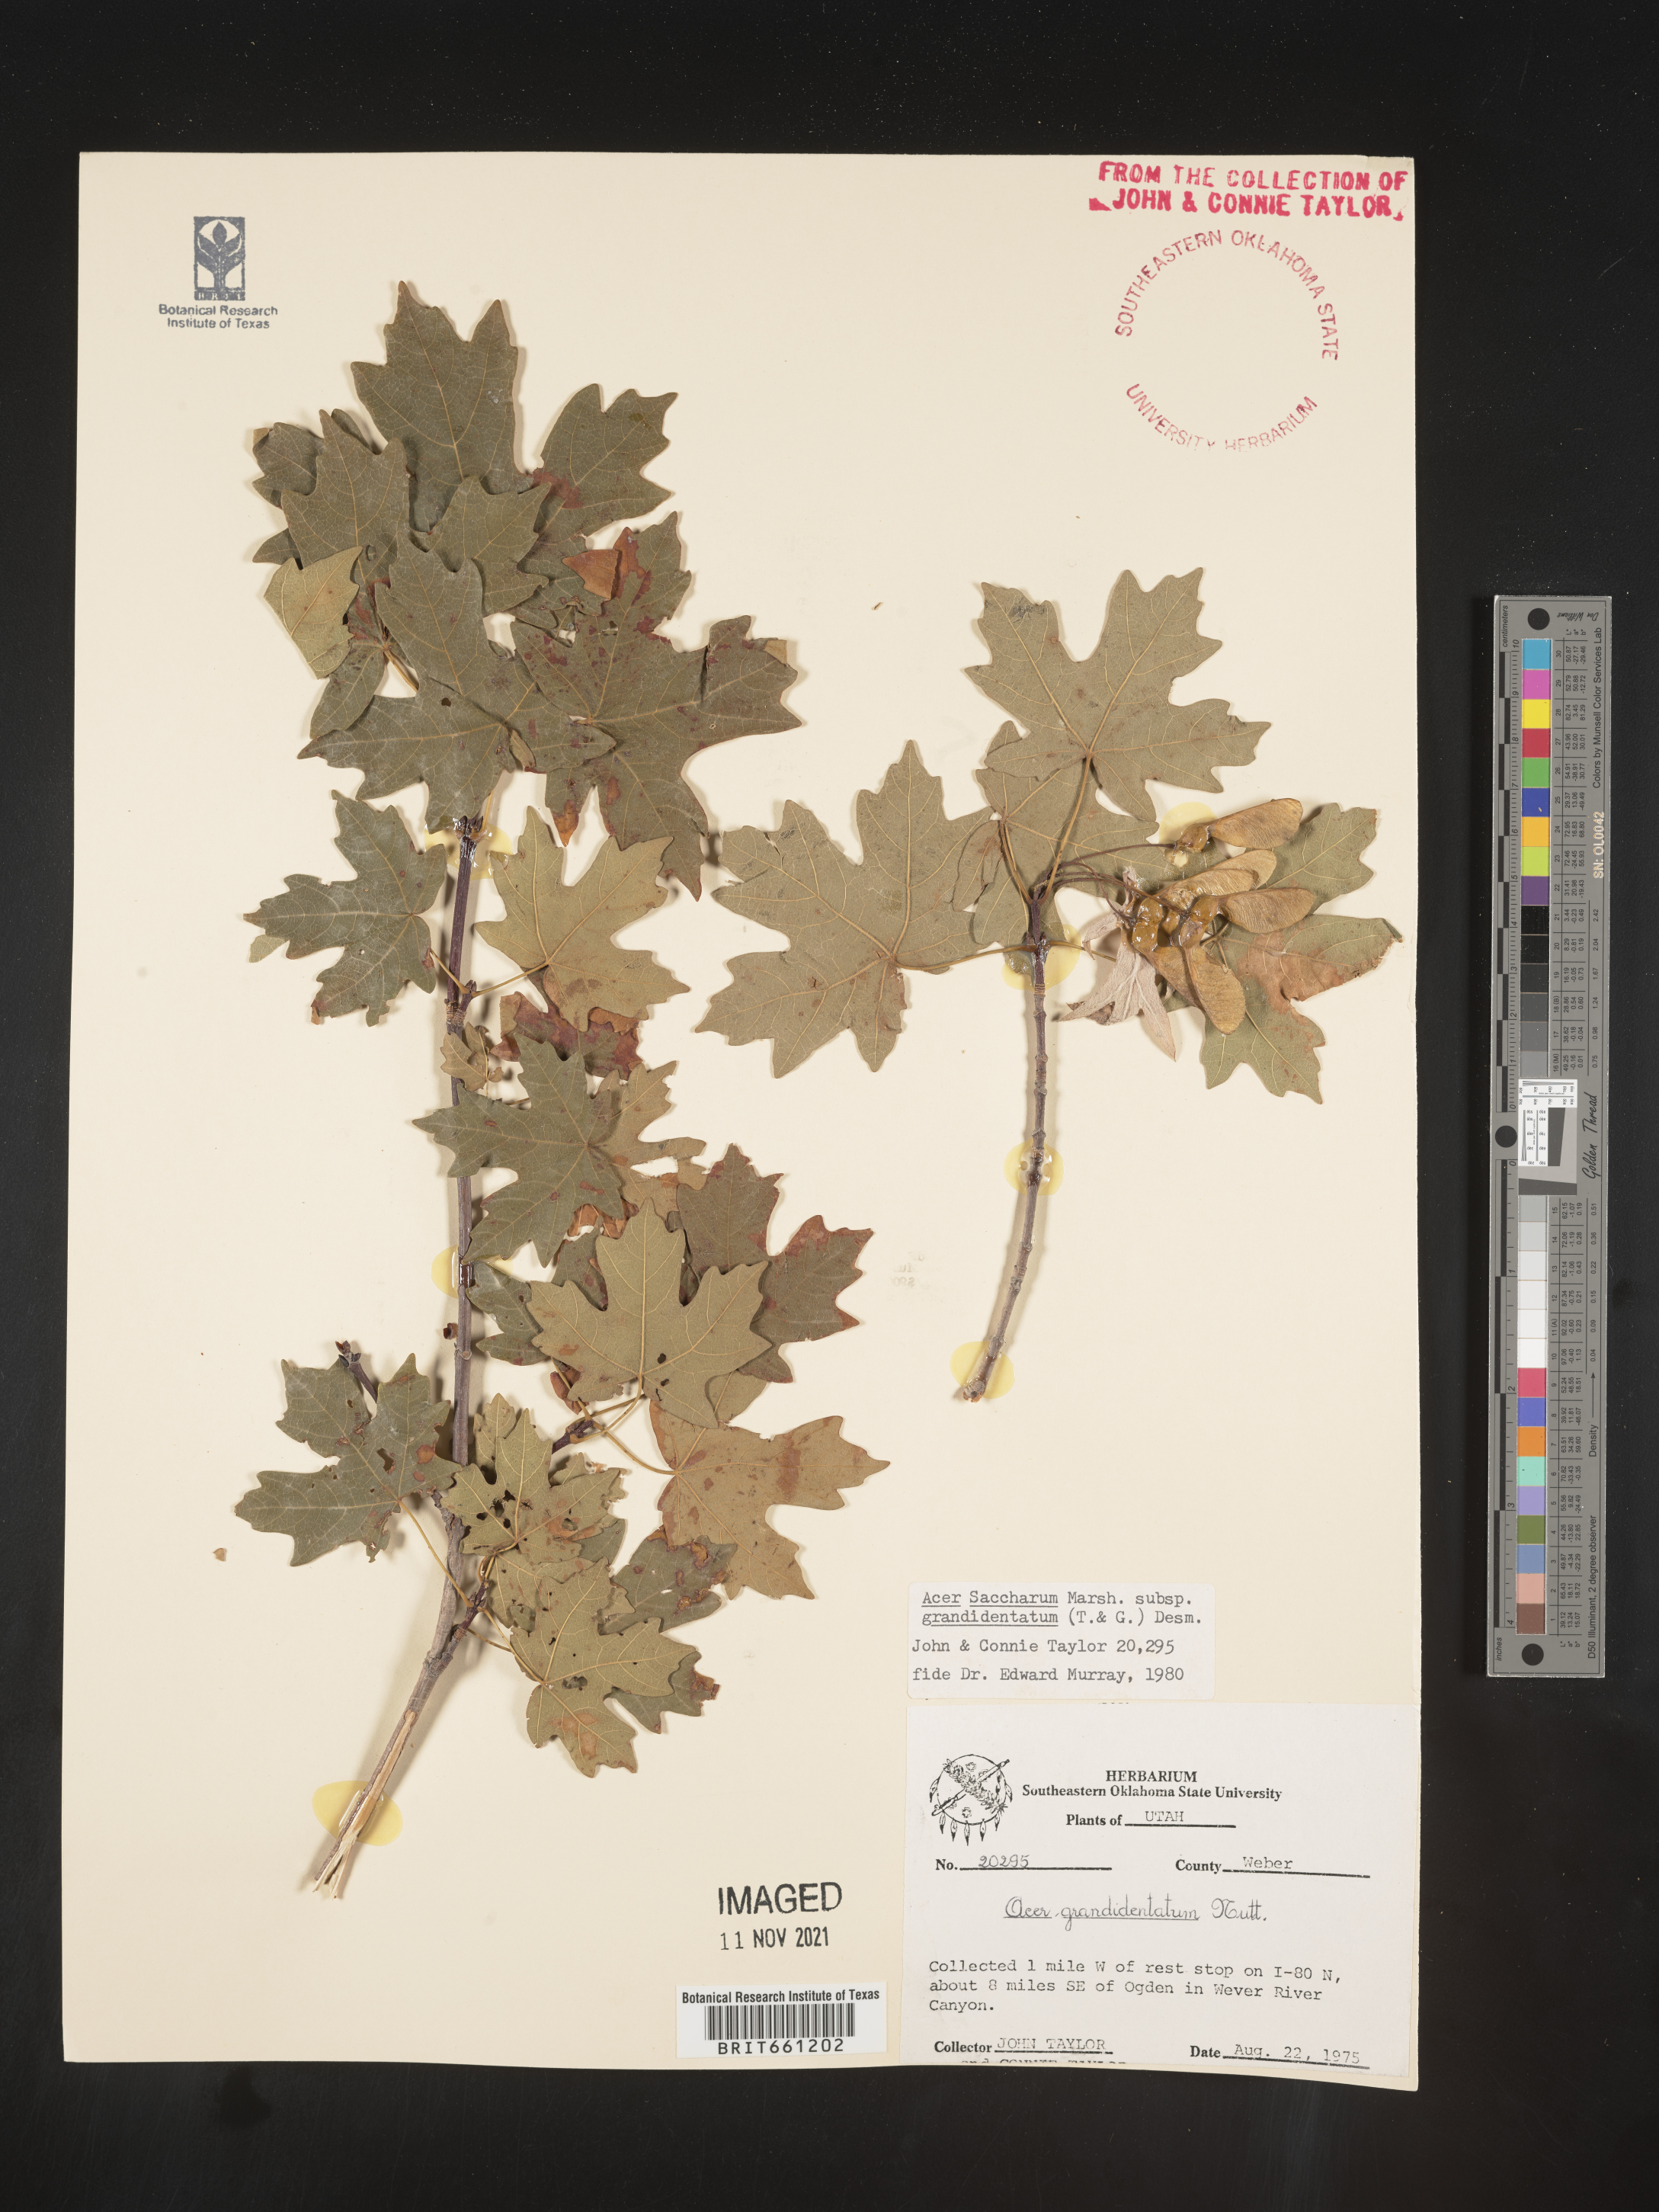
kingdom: Plantae
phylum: Tracheophyta
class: Magnoliopsida
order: Sapindales
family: Sapindaceae
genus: Acer
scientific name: Acer grandidentatum
